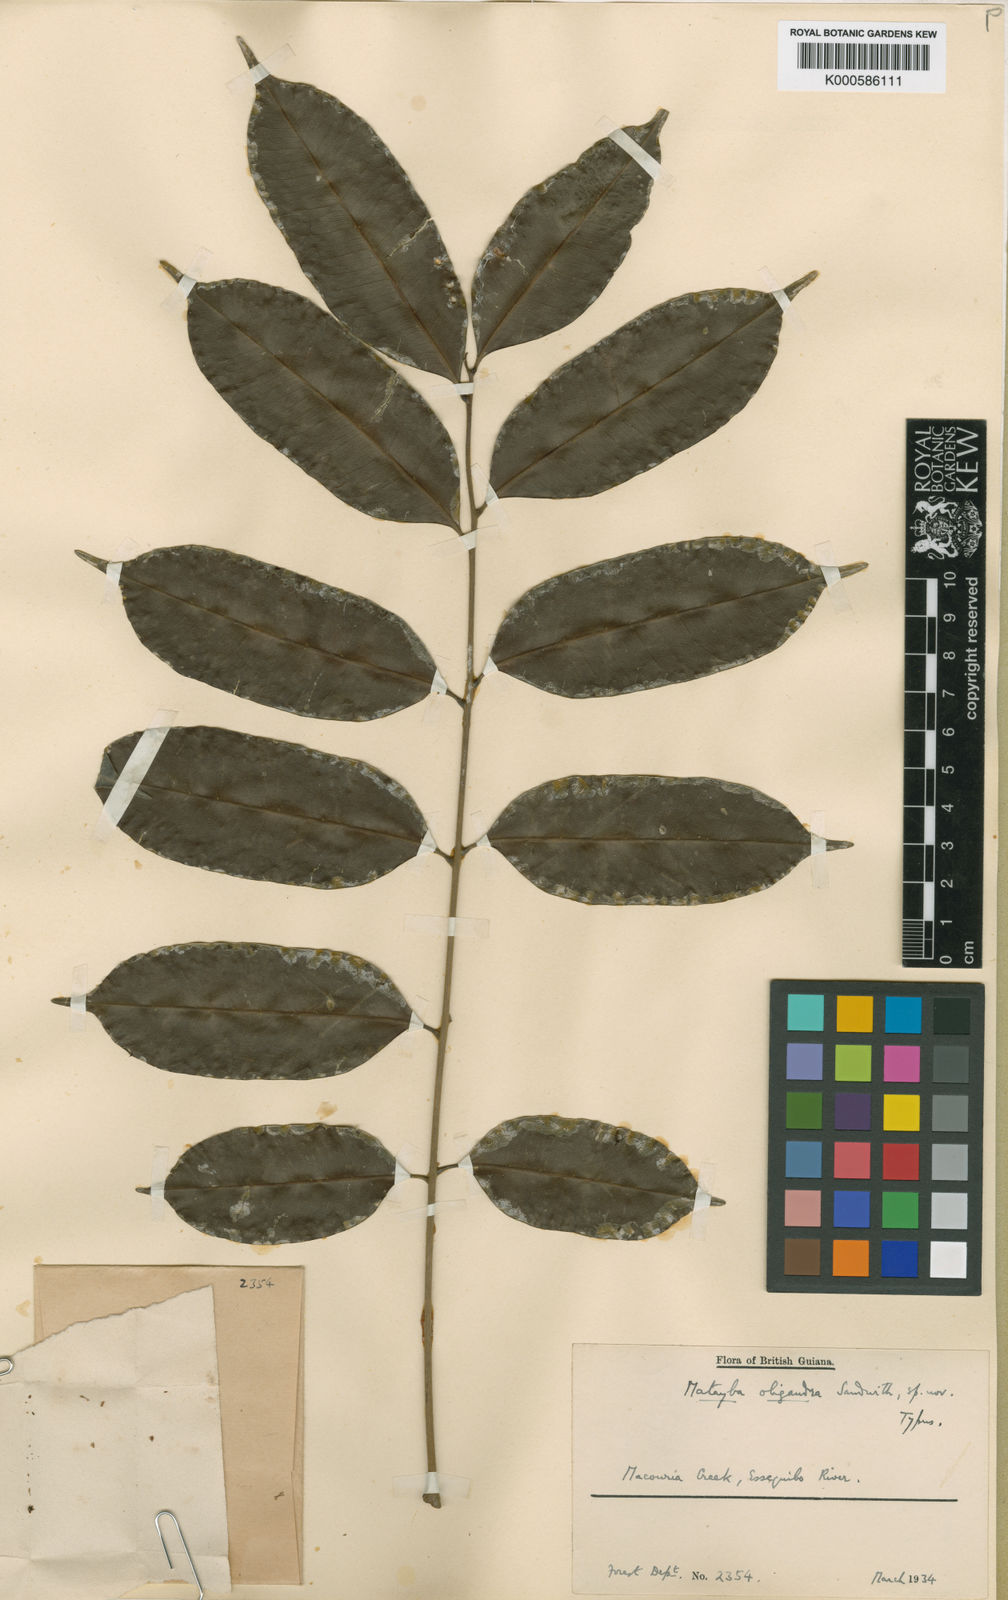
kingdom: Plantae
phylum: Tracheophyta
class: Magnoliopsida
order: Sapindales
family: Sapindaceae
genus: Matayba
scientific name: Matayba peruviana
